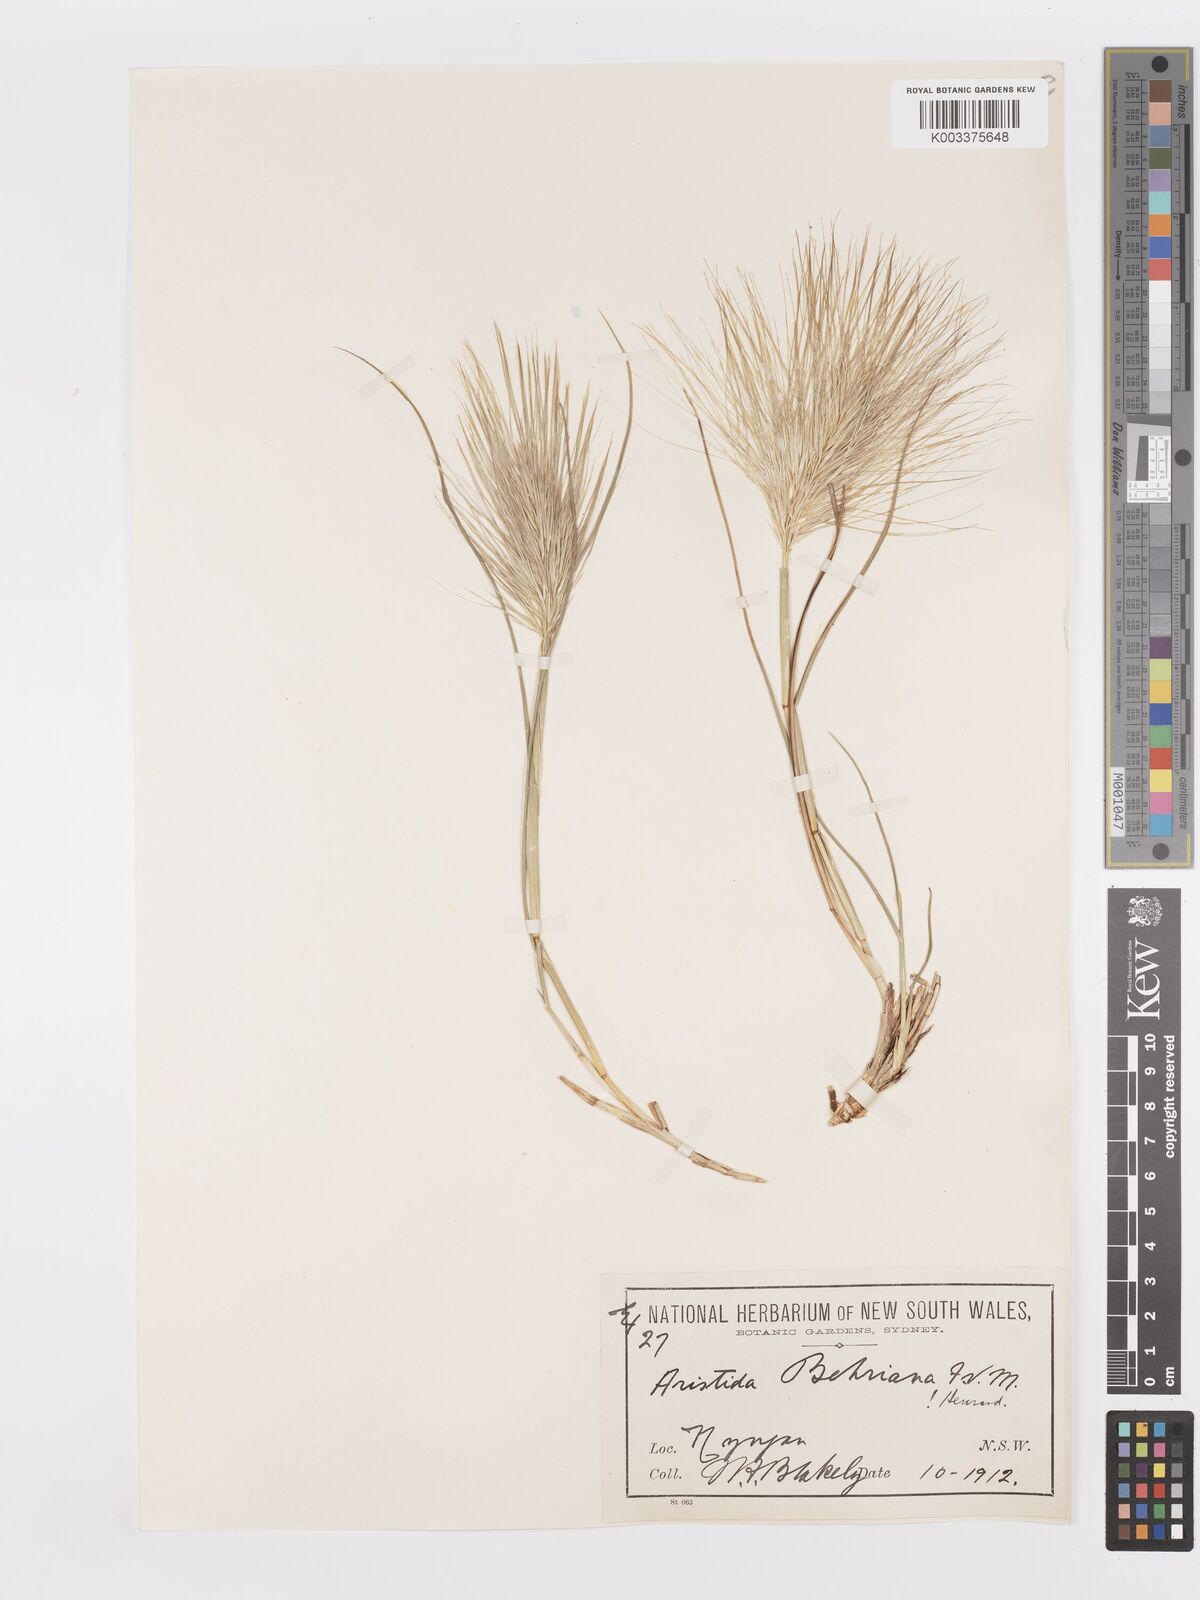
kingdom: Plantae
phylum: Tracheophyta
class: Liliopsida
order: Poales
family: Poaceae
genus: Aristida
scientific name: Aristida behriana
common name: Long-awn wire grass
